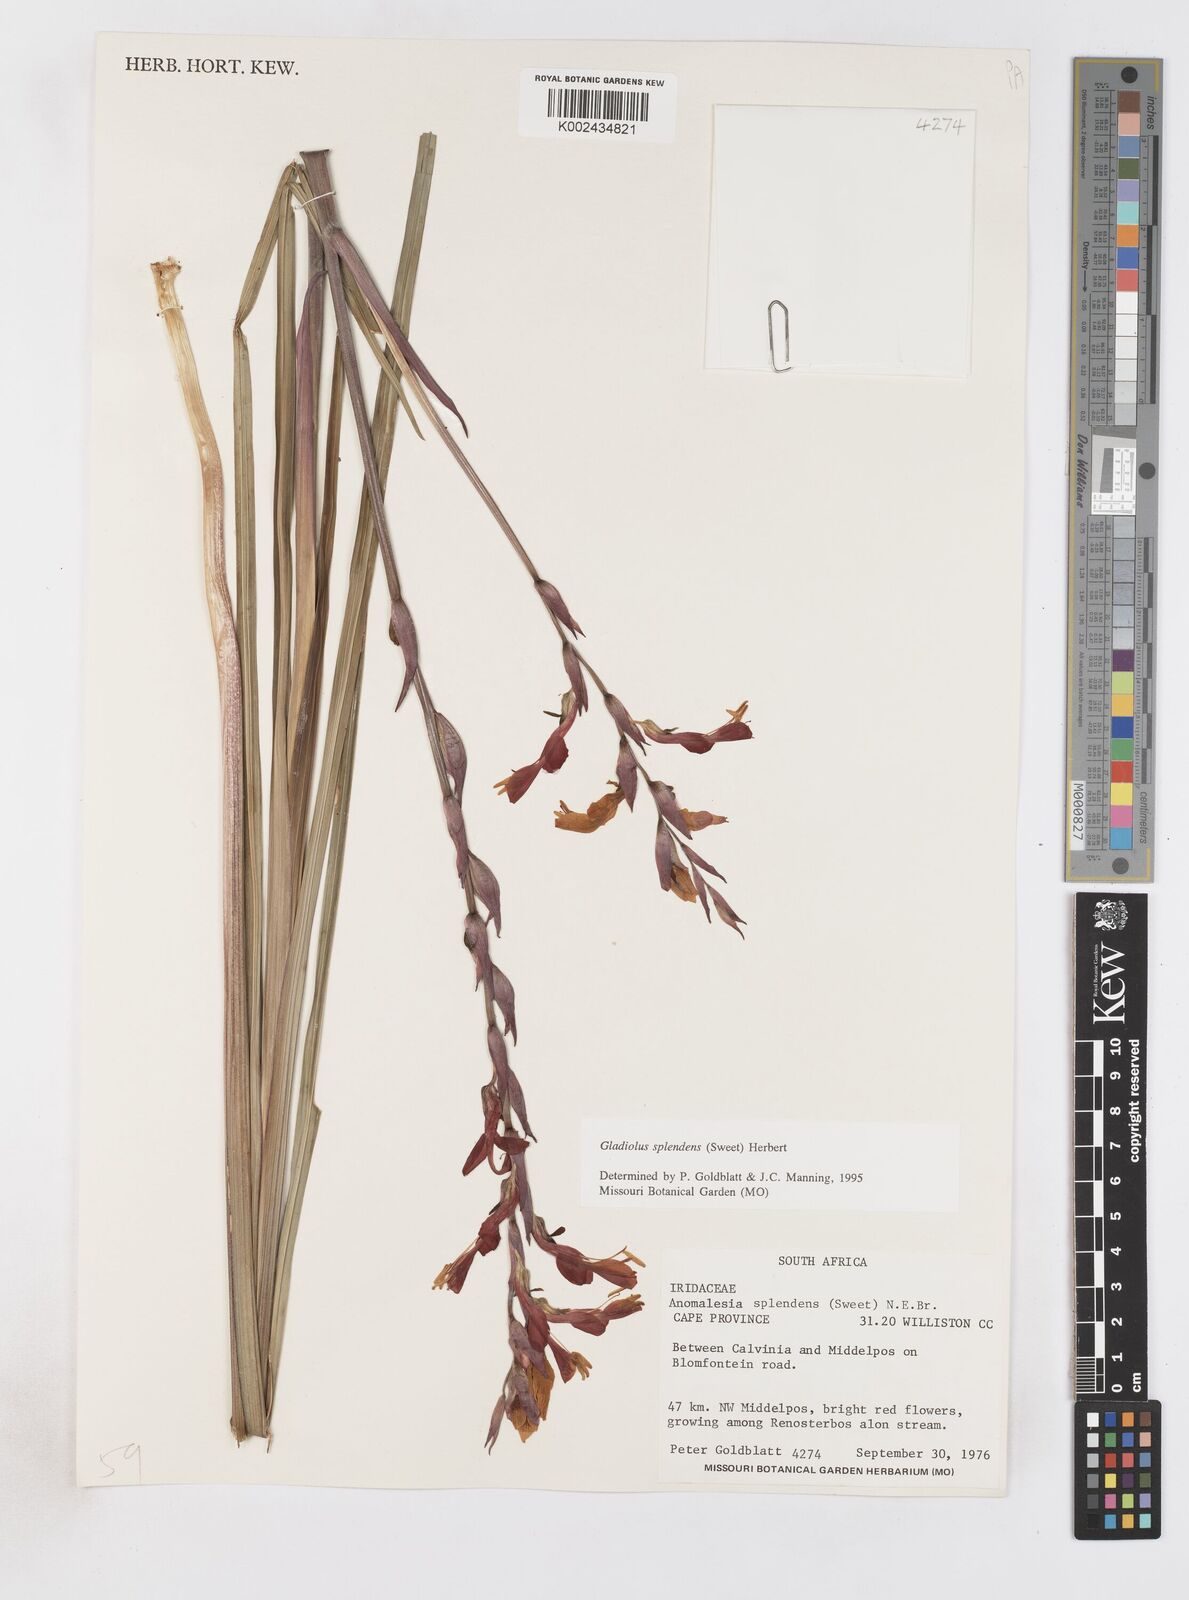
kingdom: Plantae
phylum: Tracheophyta
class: Liliopsida
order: Asparagales
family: Iridaceae
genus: Gladiolus
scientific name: Gladiolus splendens
